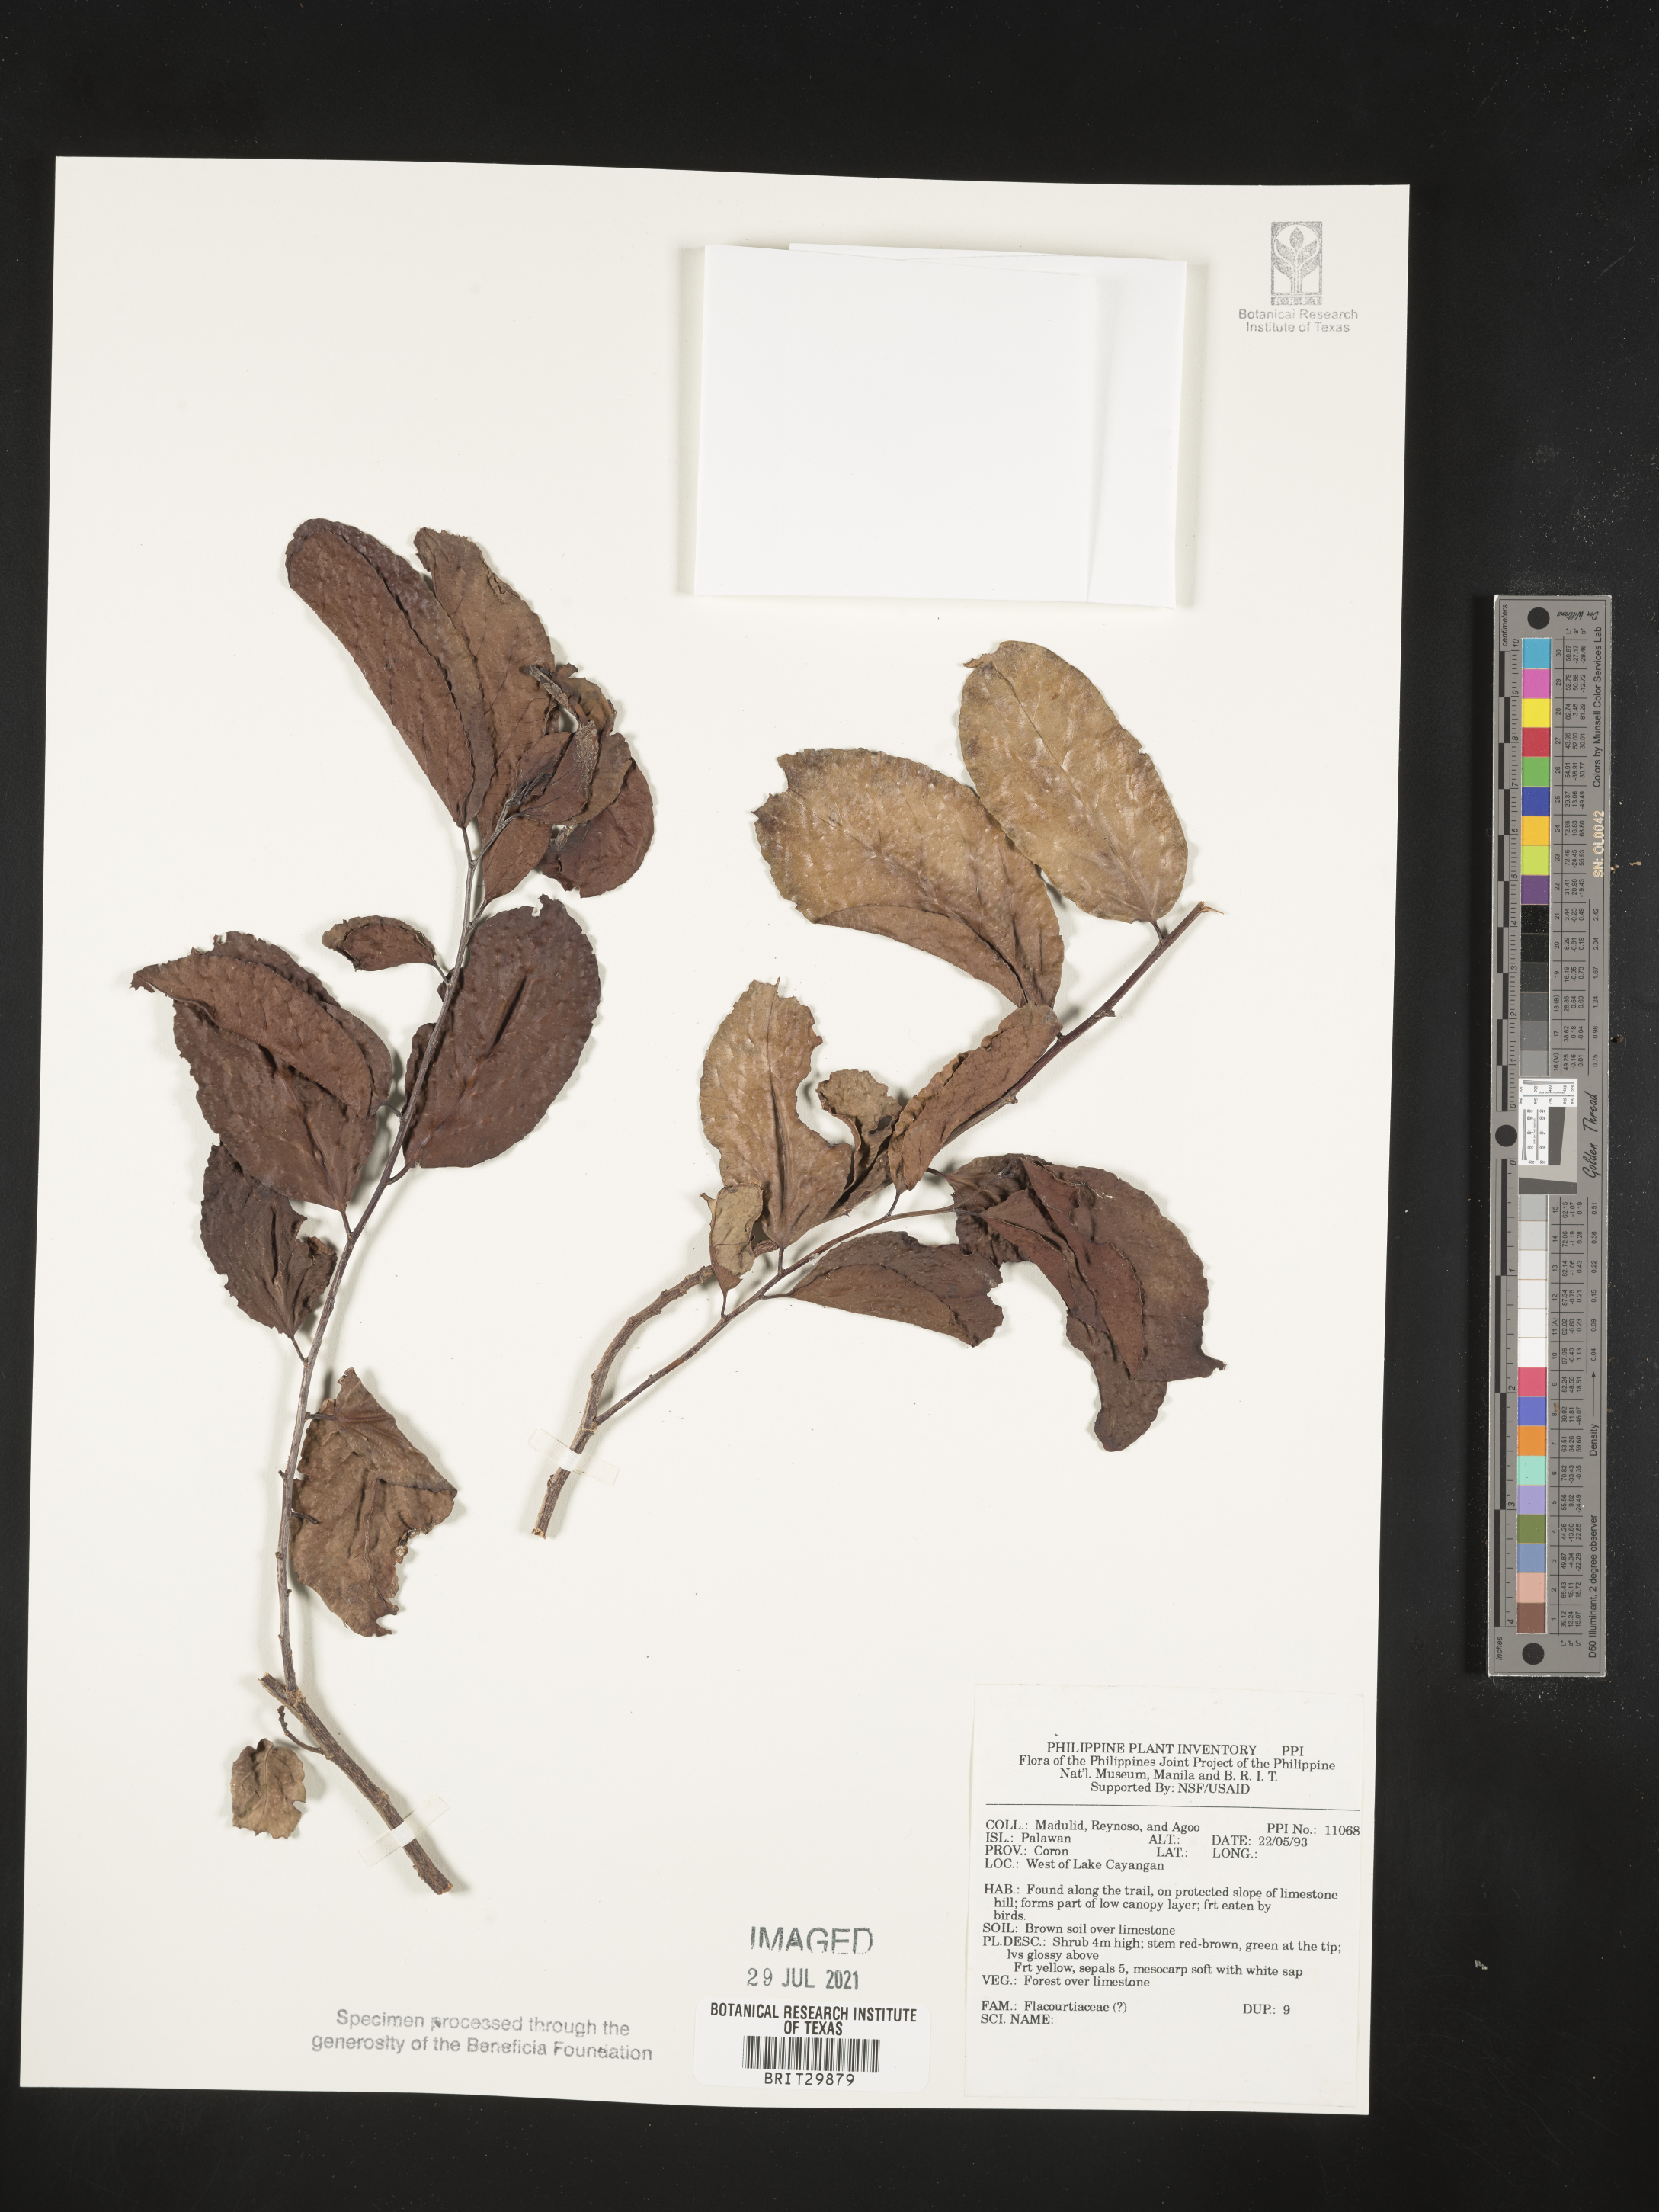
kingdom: Plantae
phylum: Tracheophyta
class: Magnoliopsida
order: Malpighiales
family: Flacourtiaceae
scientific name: Flacourtiaceae
